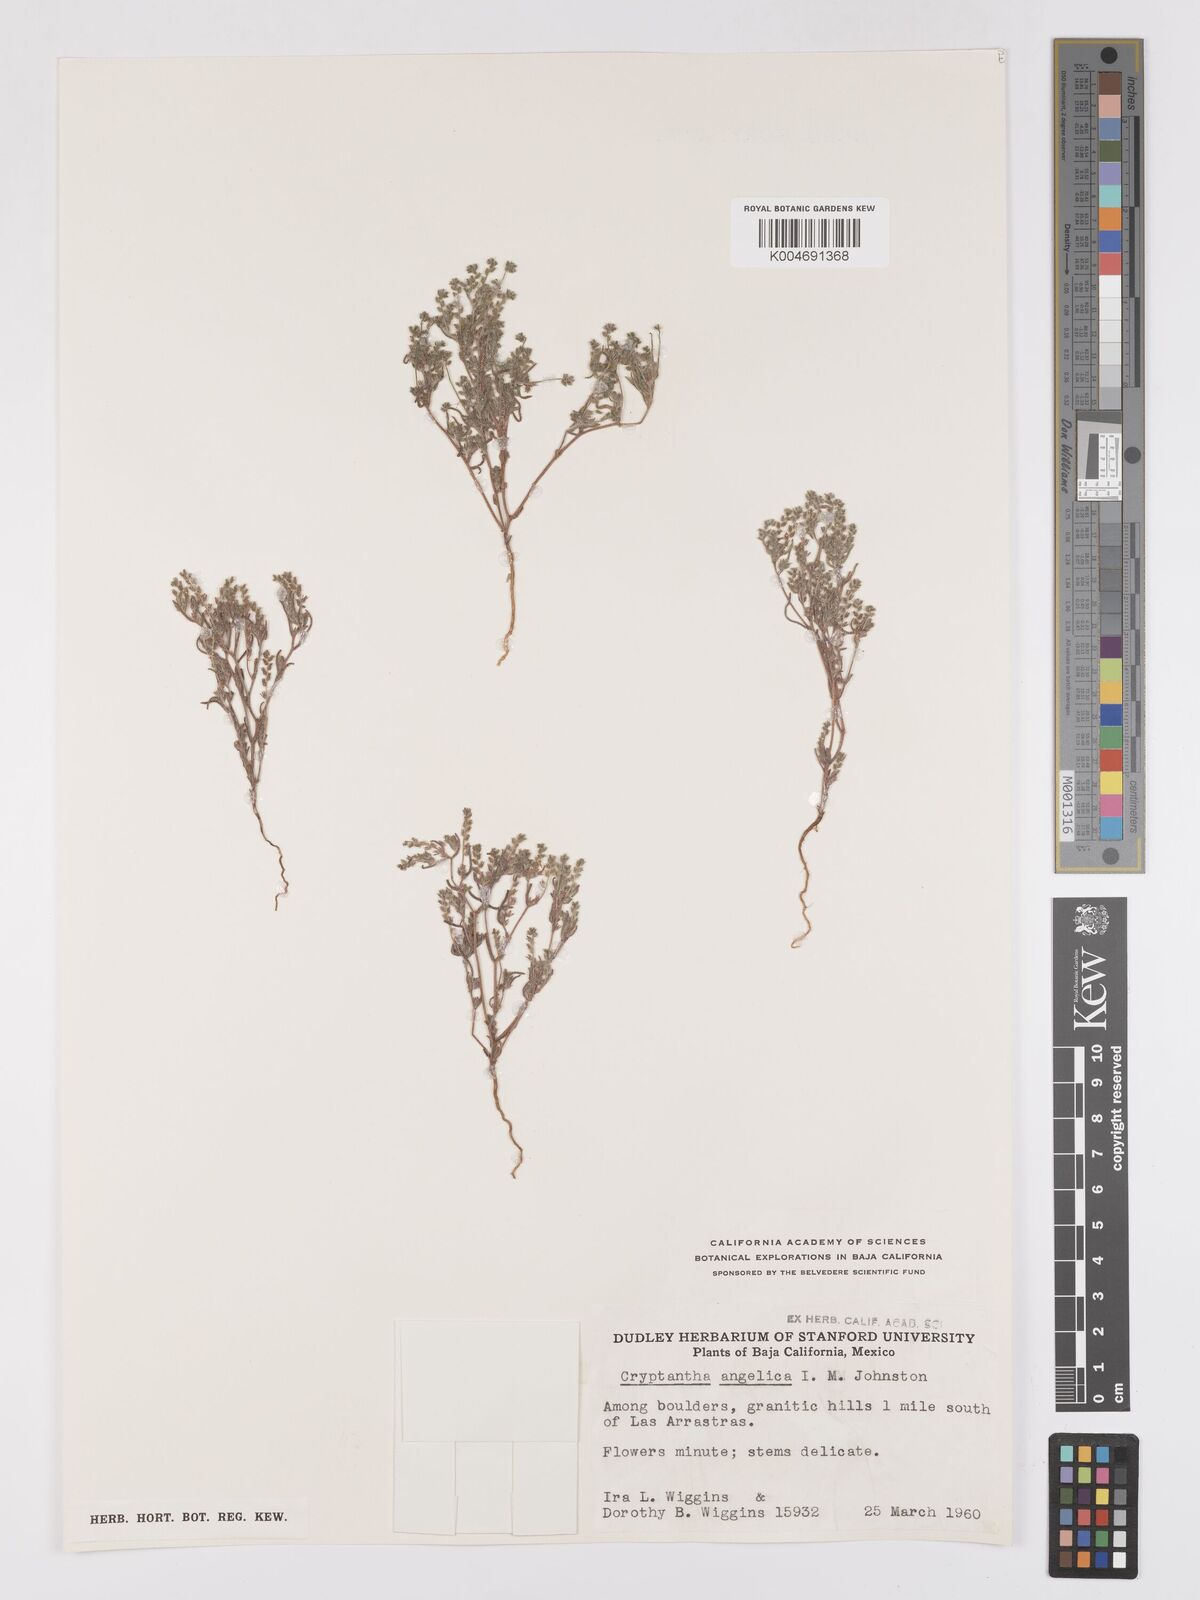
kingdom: Plantae
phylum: Tracheophyta
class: Magnoliopsida
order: Boraginales
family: Boraginaceae
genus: Johnstonella
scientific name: Johnstonella angelica
